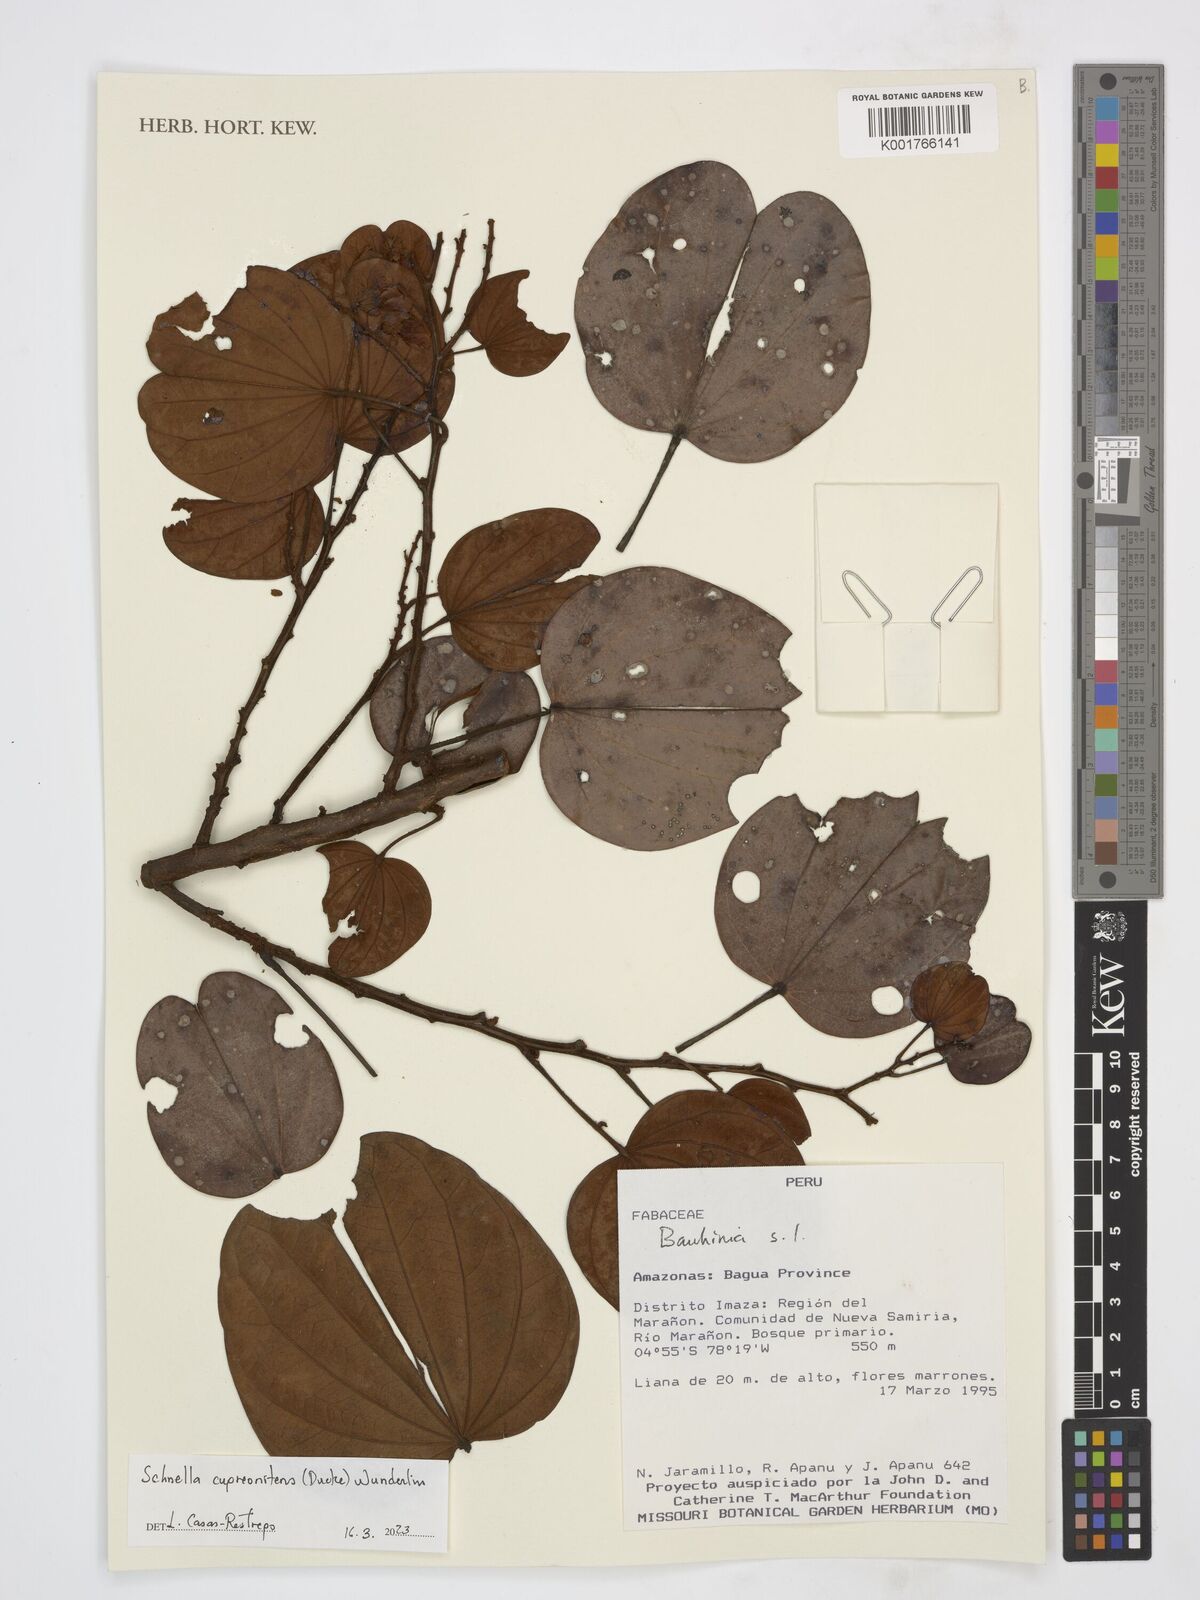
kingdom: Plantae
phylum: Tracheophyta
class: Magnoliopsida
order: Fabales
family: Fabaceae
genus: Schnella
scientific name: Schnella cupreonitens
